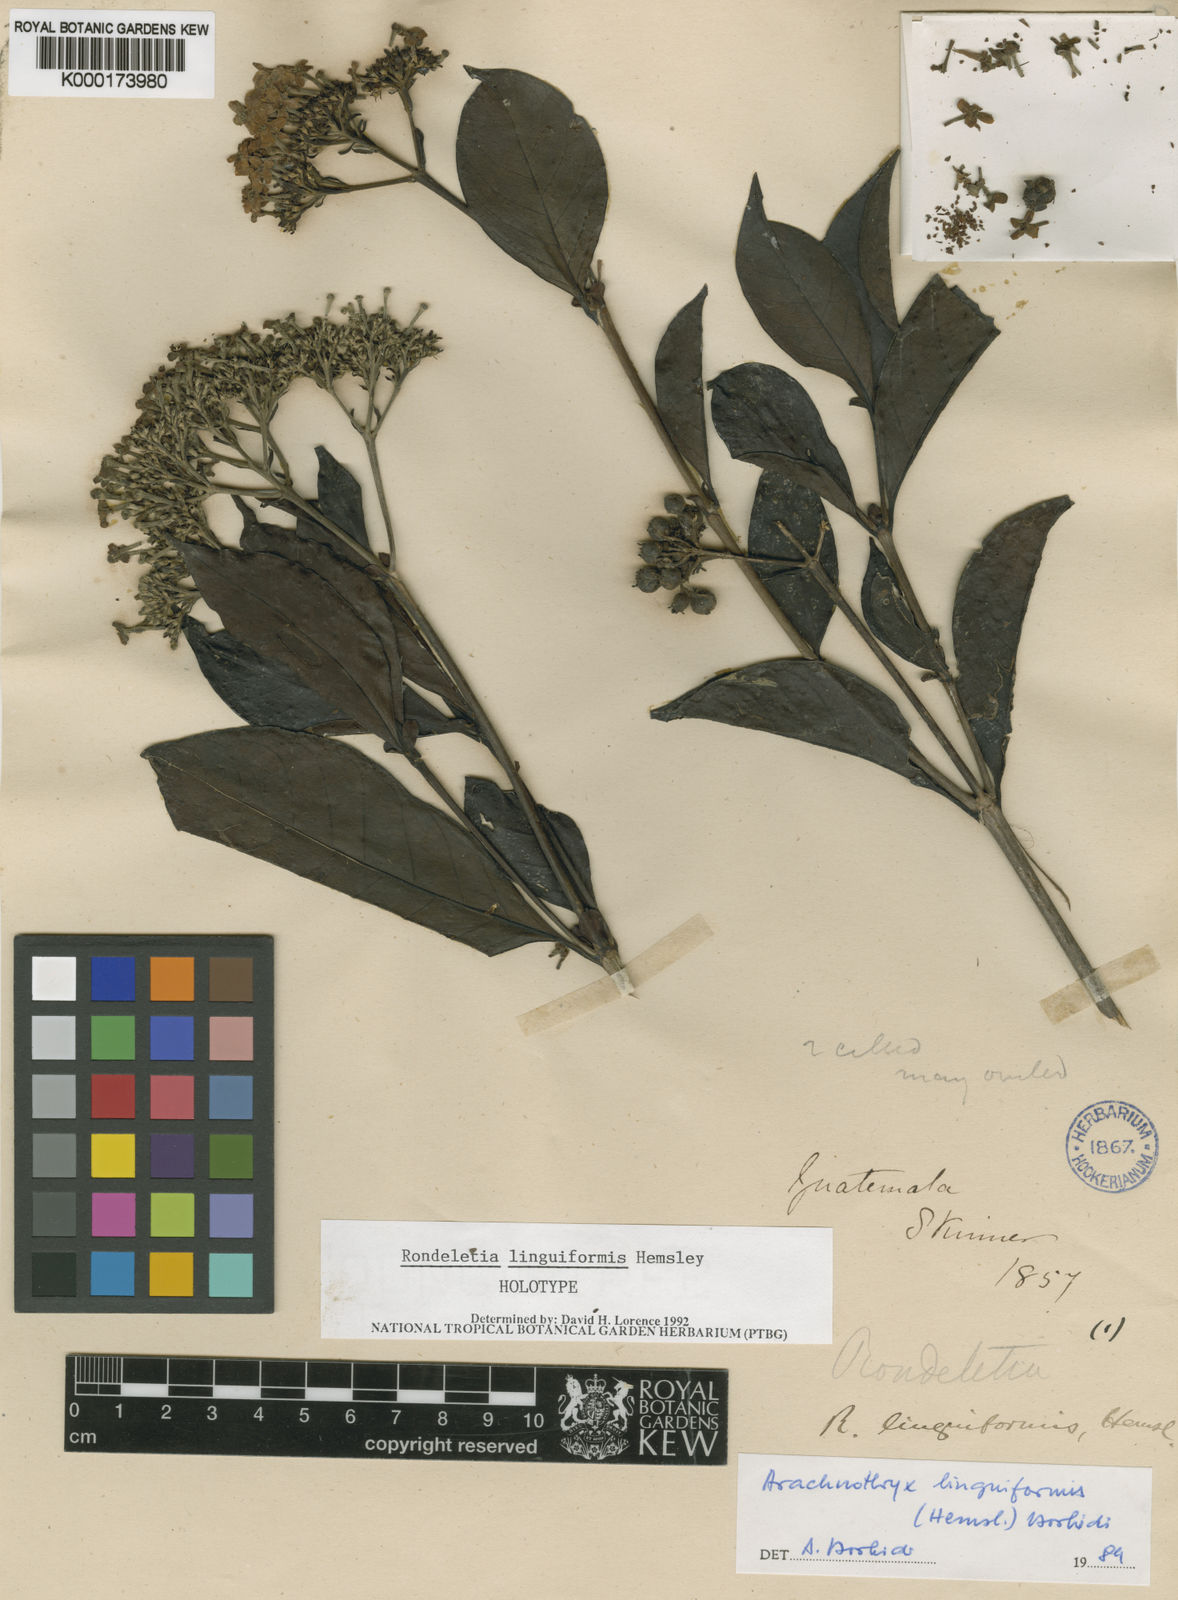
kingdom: Plantae
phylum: Tracheophyta
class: Magnoliopsida
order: Gentianales
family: Rubiaceae
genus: Arachnothryx
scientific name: Arachnothryx linguiformis
